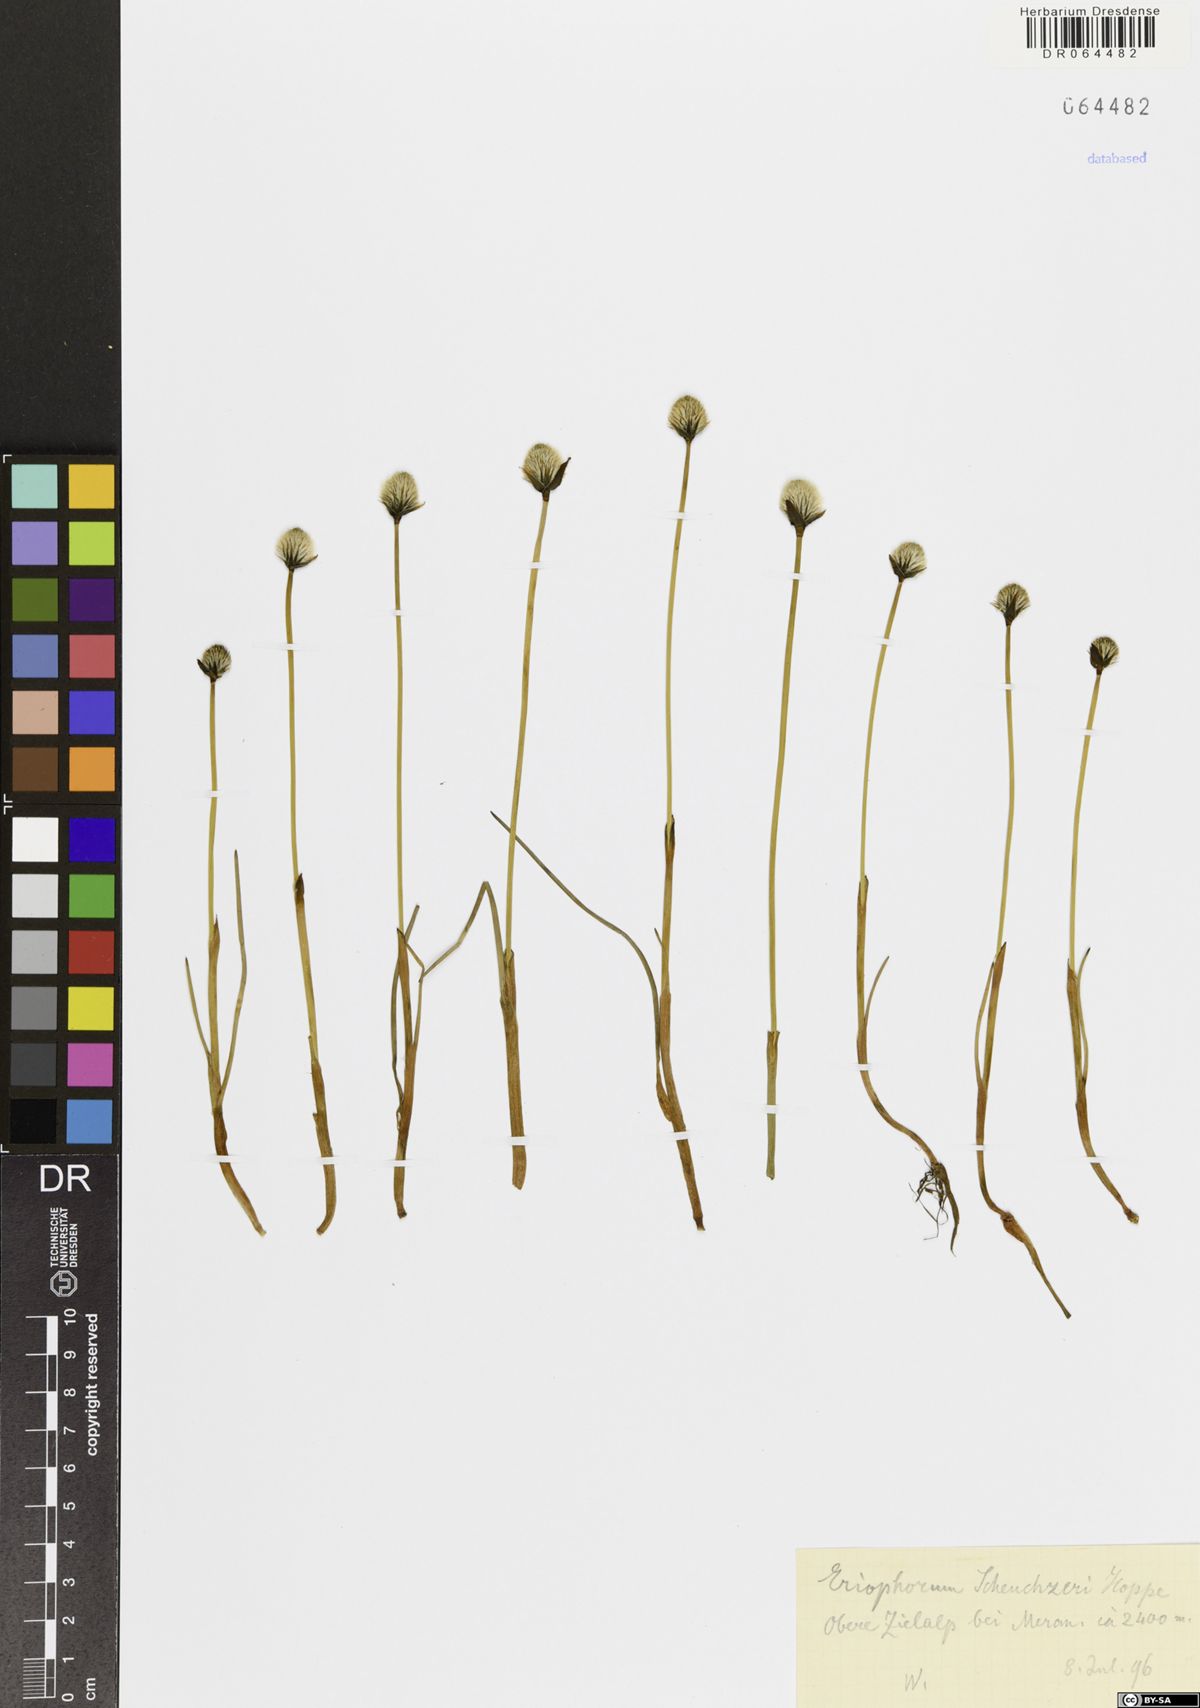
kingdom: Plantae
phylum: Tracheophyta
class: Liliopsida
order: Poales
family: Cyperaceae
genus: Eriophorum
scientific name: Eriophorum scheuchzeri
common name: Scheuchzer's cottongrass
